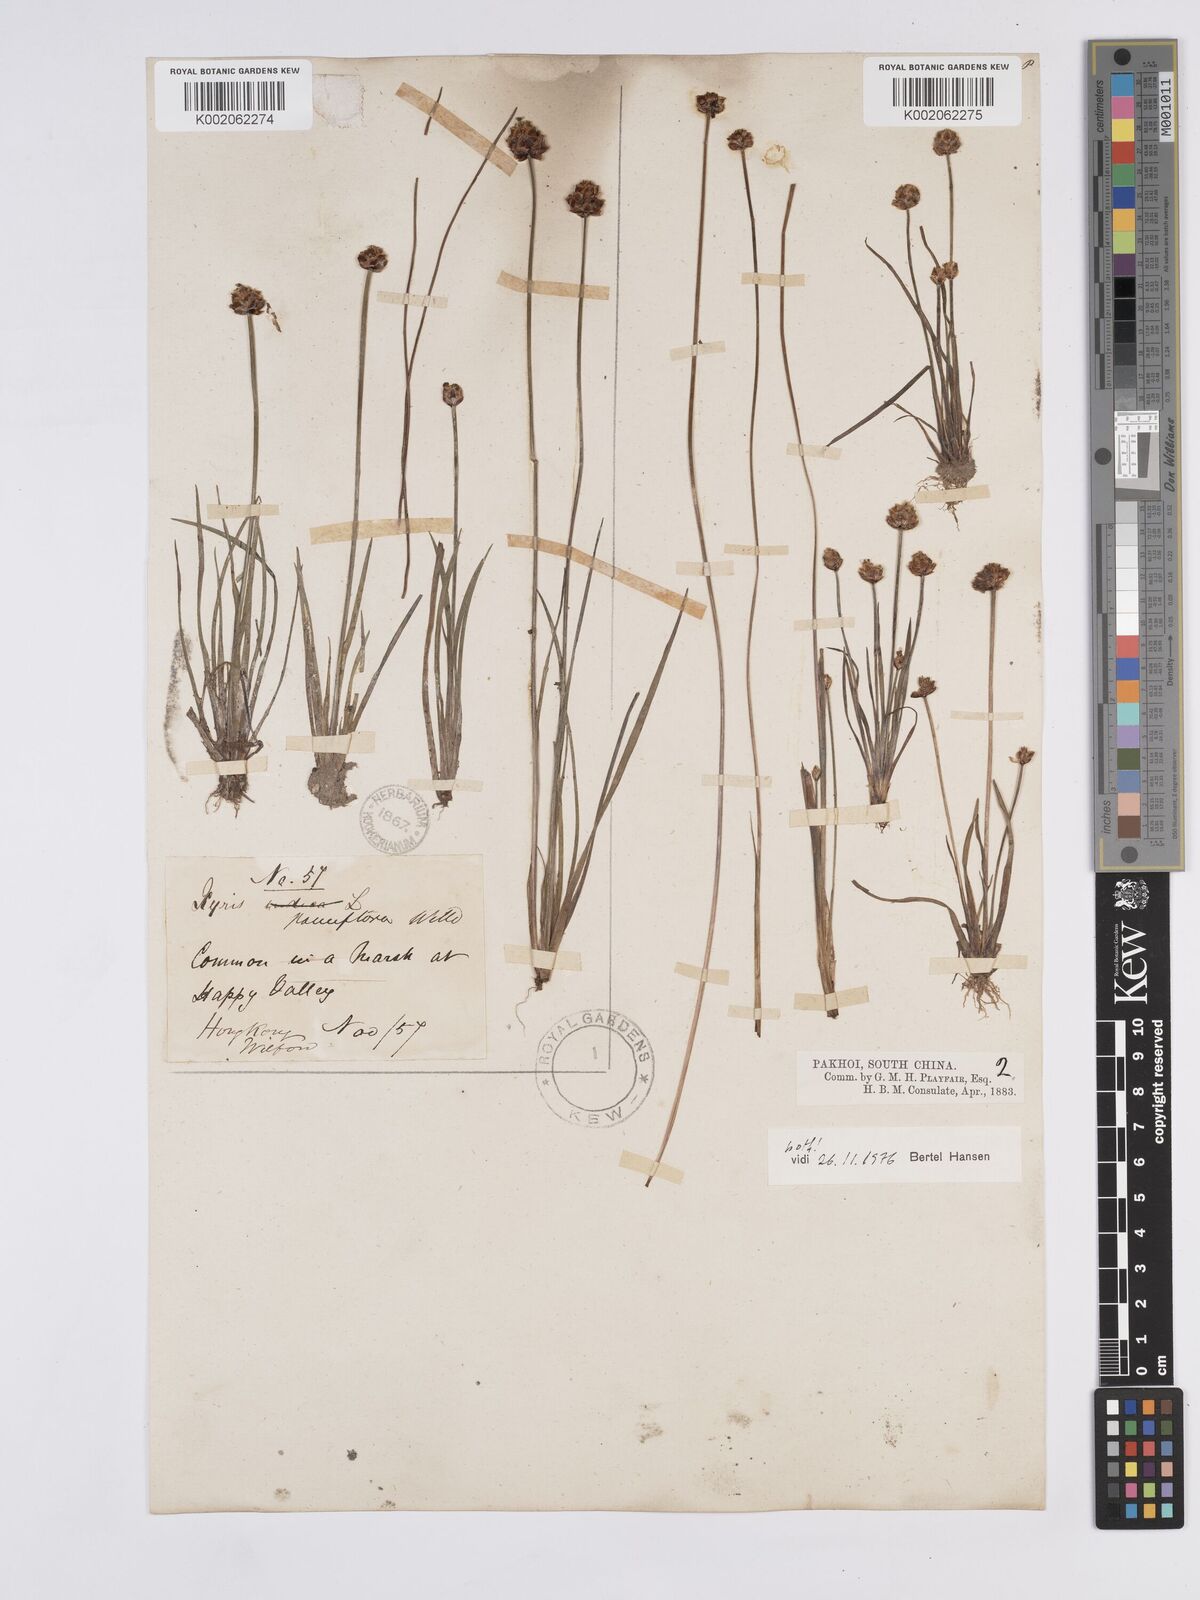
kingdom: Plantae
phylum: Tracheophyta
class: Liliopsida
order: Poales
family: Xyridaceae
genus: Xyris
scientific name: Xyris pauciflora
